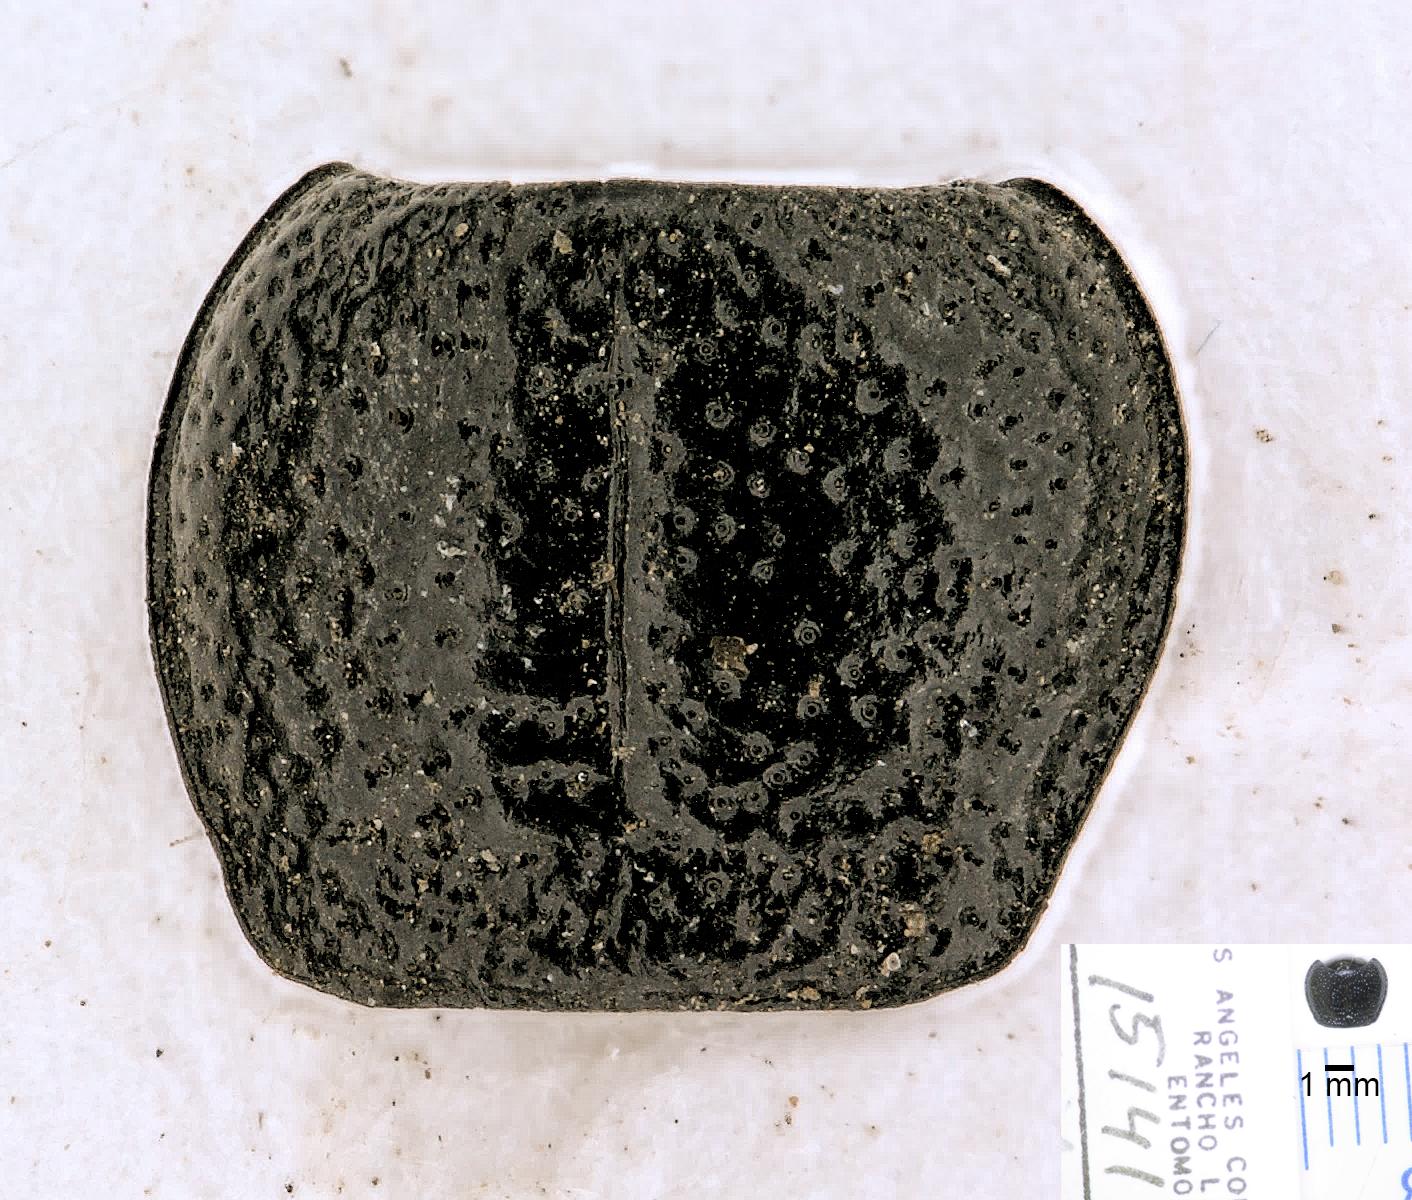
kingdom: Animalia
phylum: Arthropoda
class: Insecta
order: Coleoptera
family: Carabidae
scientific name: Carabidae
